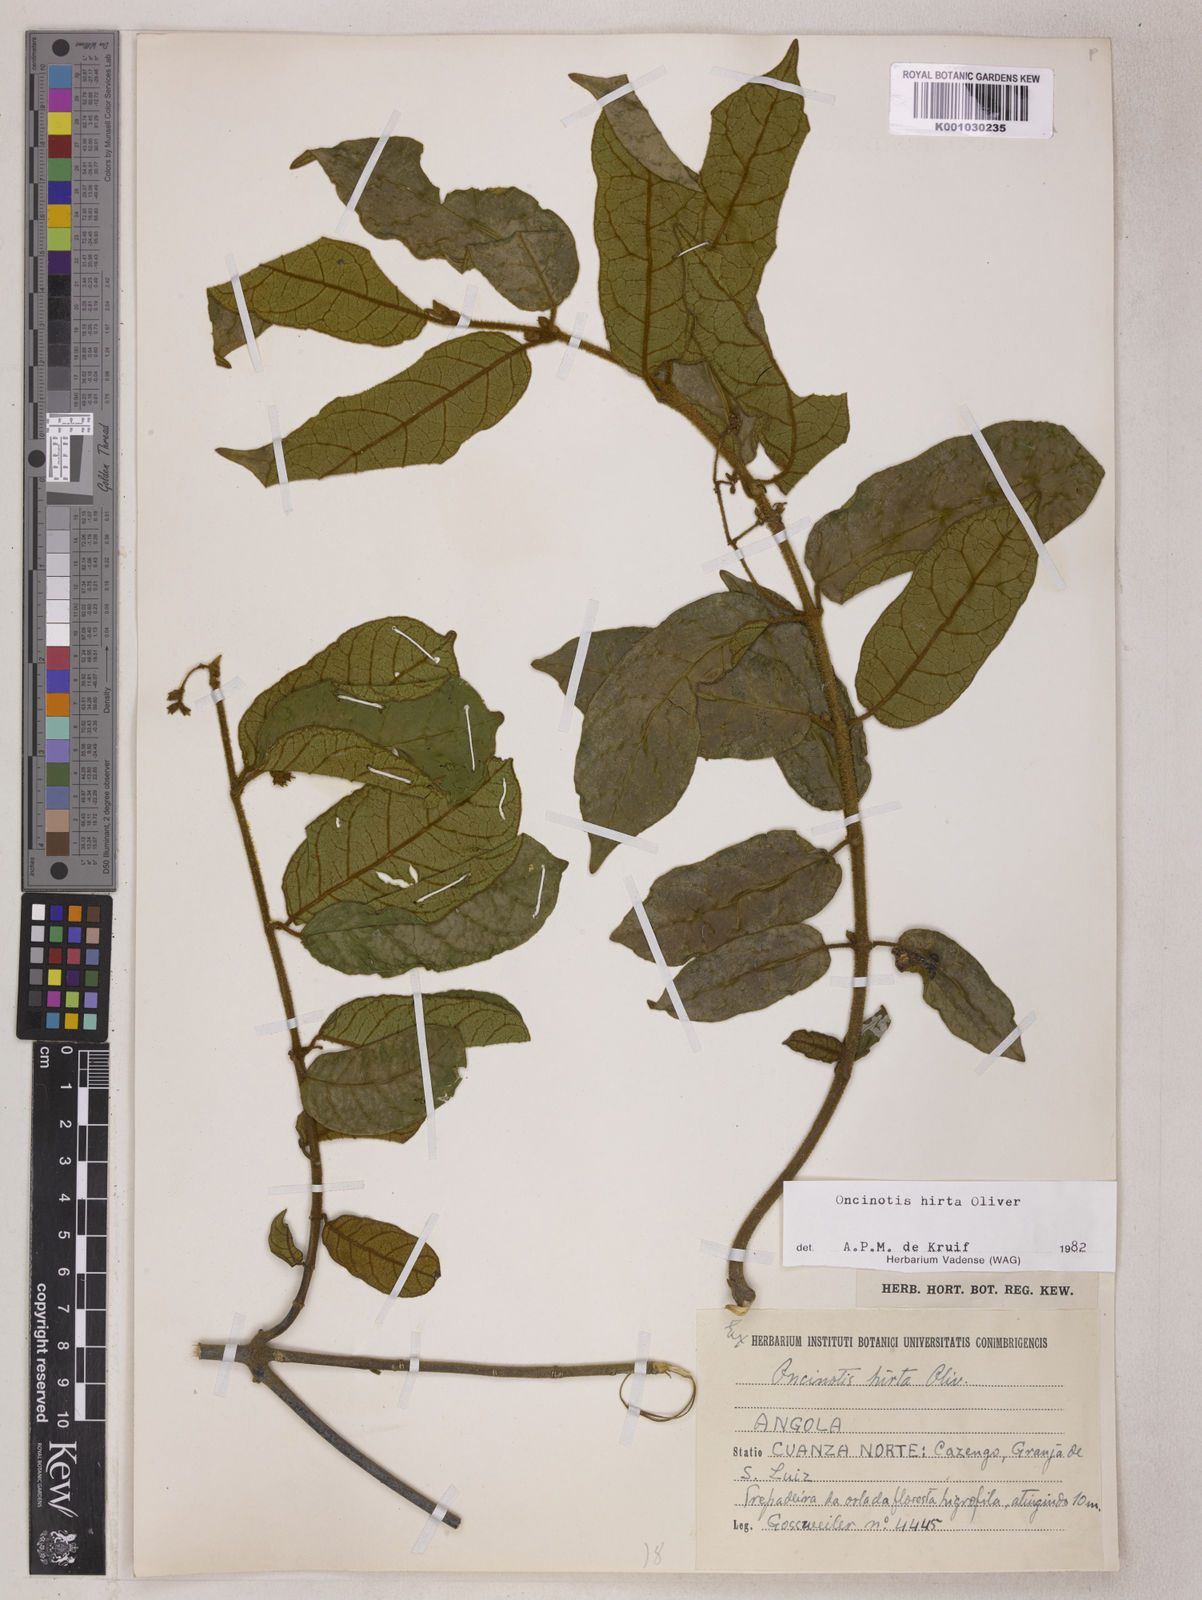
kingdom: Plantae
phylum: Tracheophyta
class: Magnoliopsida
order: Gentianales
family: Apocynaceae
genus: Oncinotis
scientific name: Oncinotis hirta
